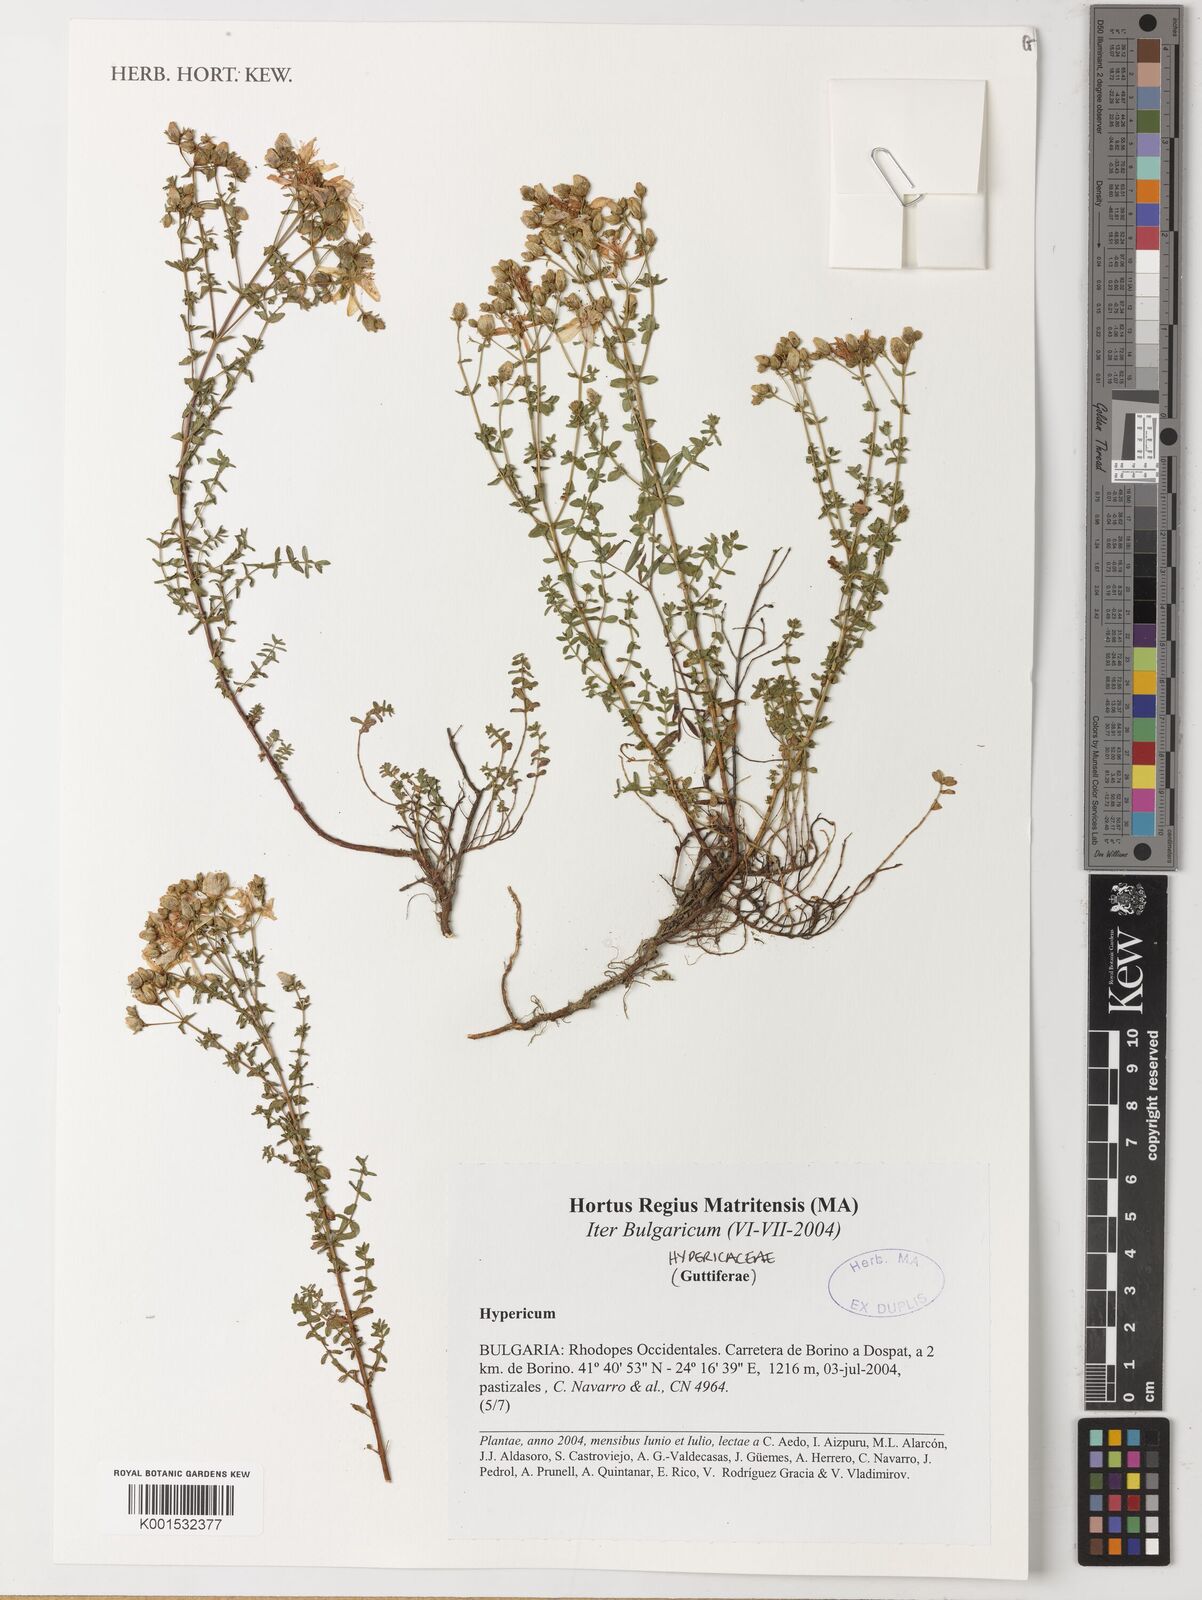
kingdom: Plantae
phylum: Tracheophyta
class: Magnoliopsida
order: Malpighiales
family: Hypericaceae
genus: Hypericum
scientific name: Hypericum
